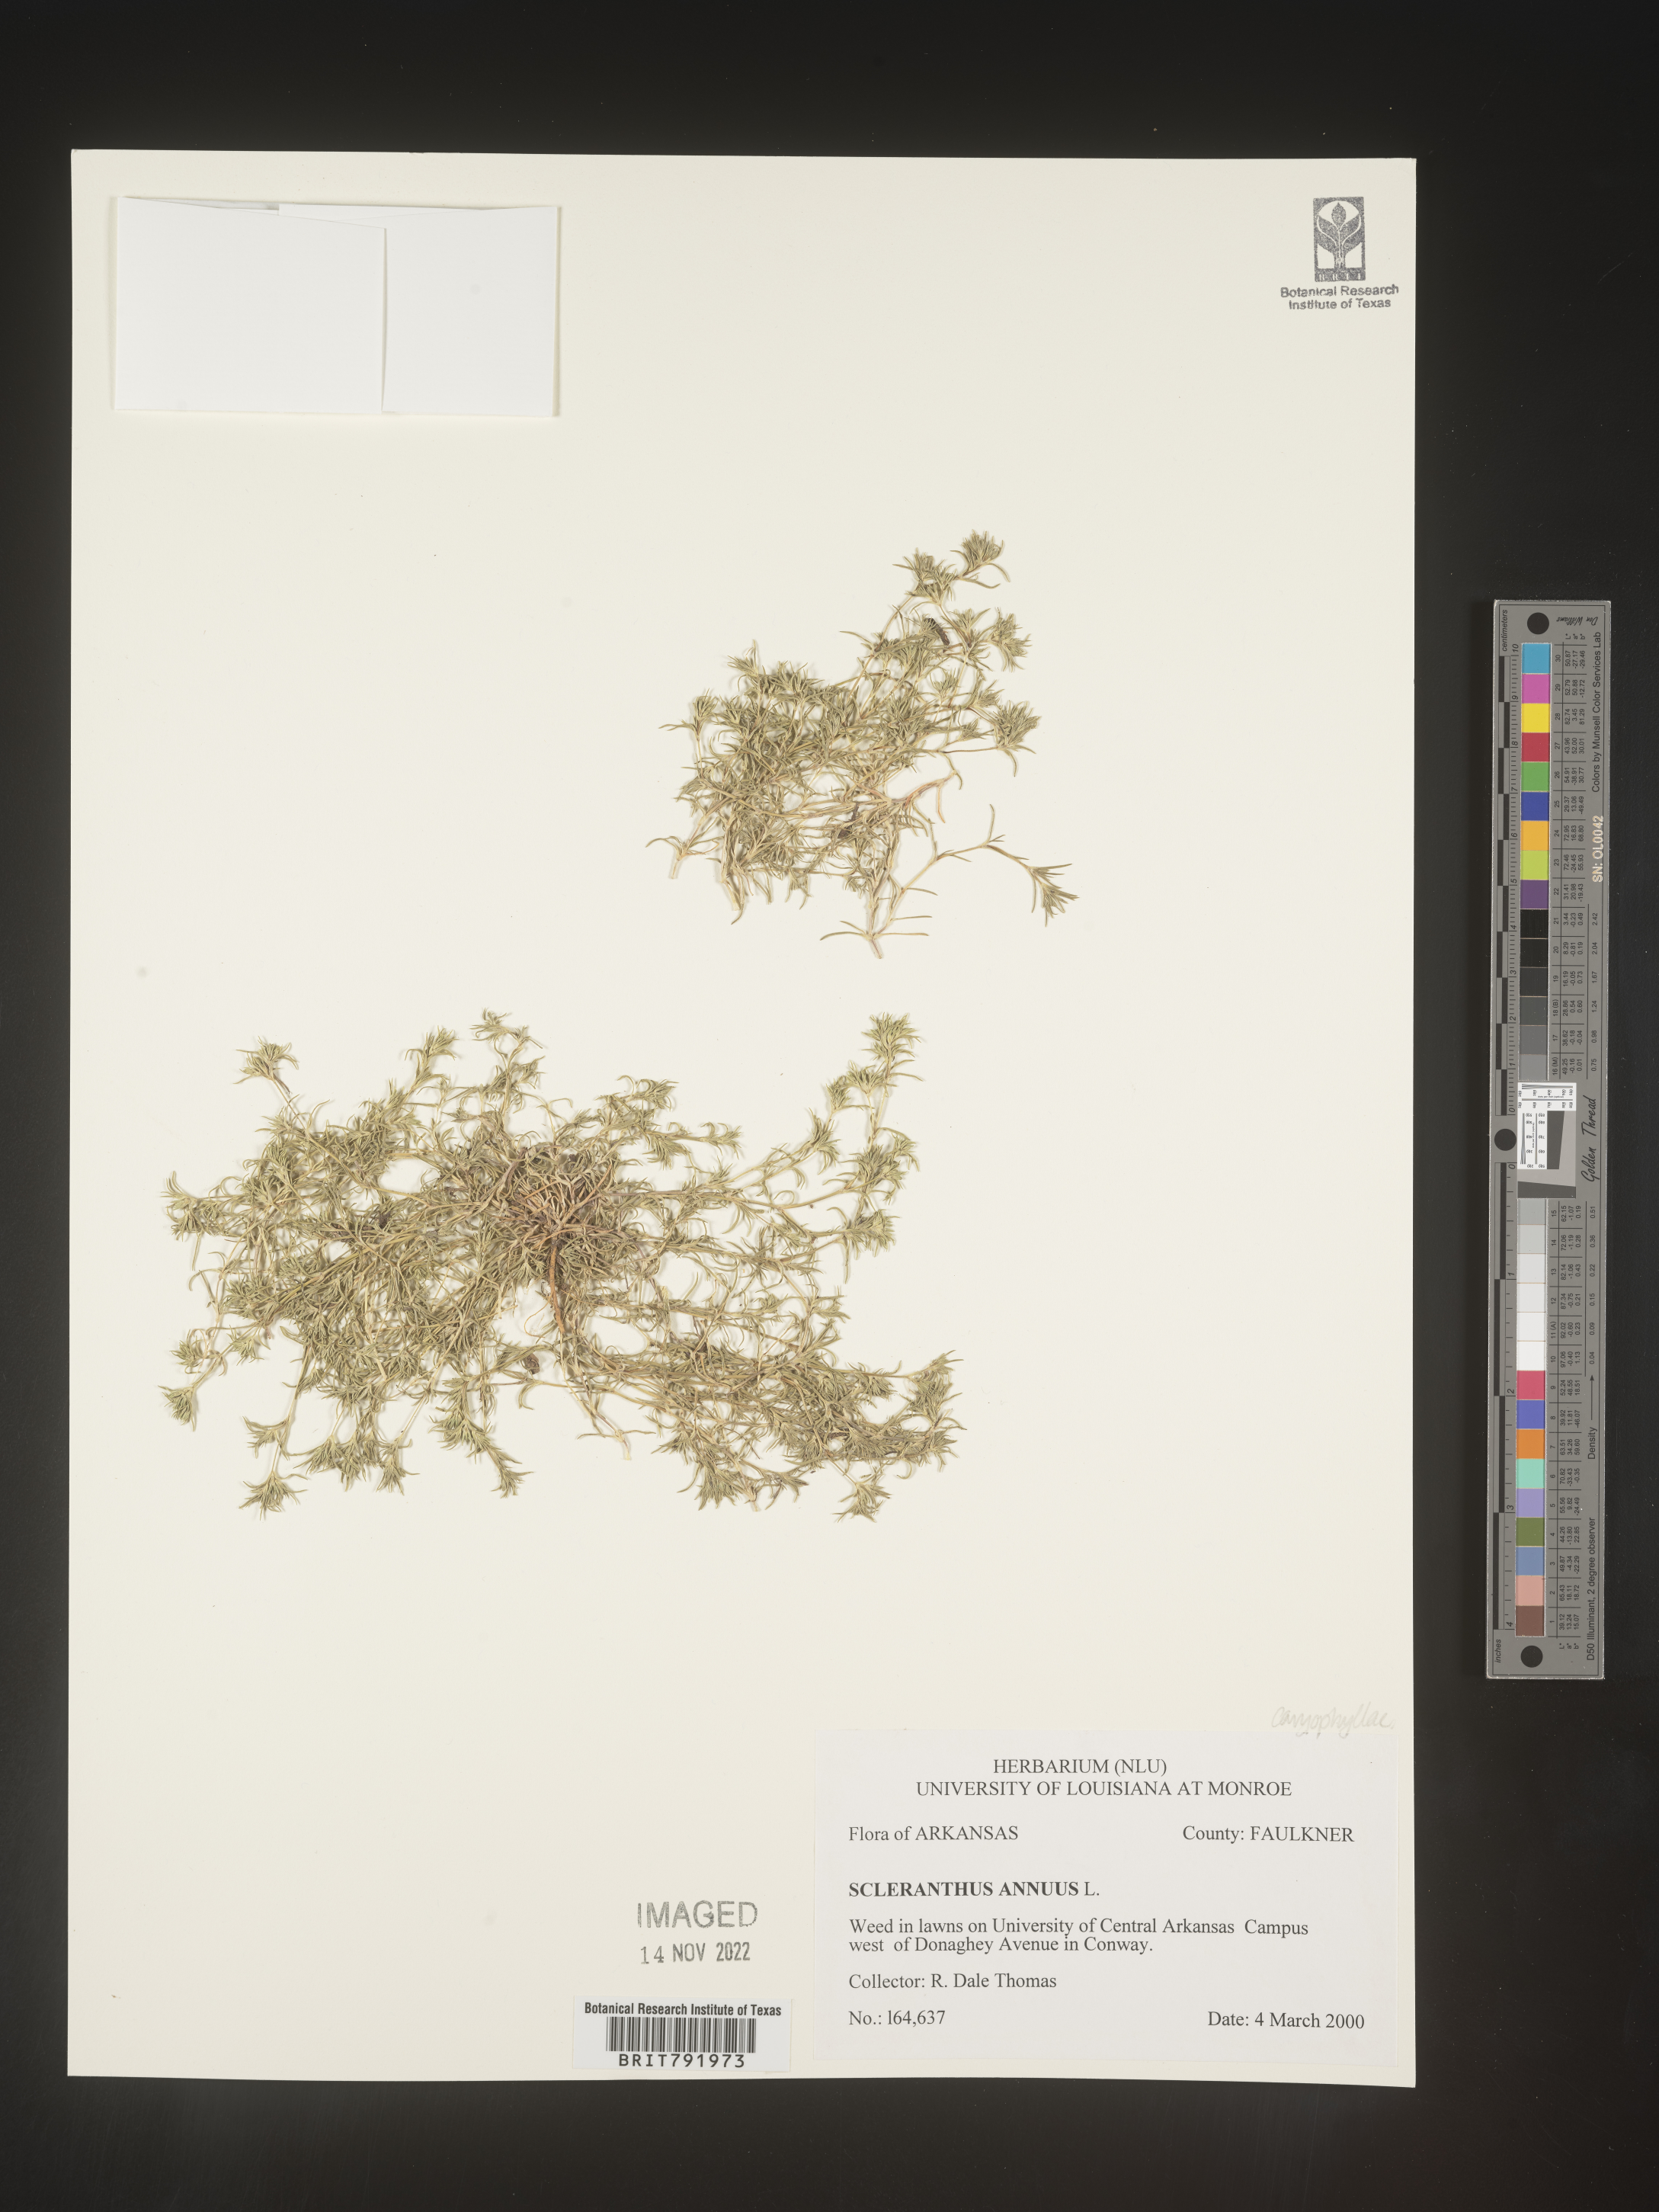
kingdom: Plantae
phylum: Tracheophyta
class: Magnoliopsida
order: Caryophyllales
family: Caryophyllaceae
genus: Scleranthus
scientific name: Scleranthus
